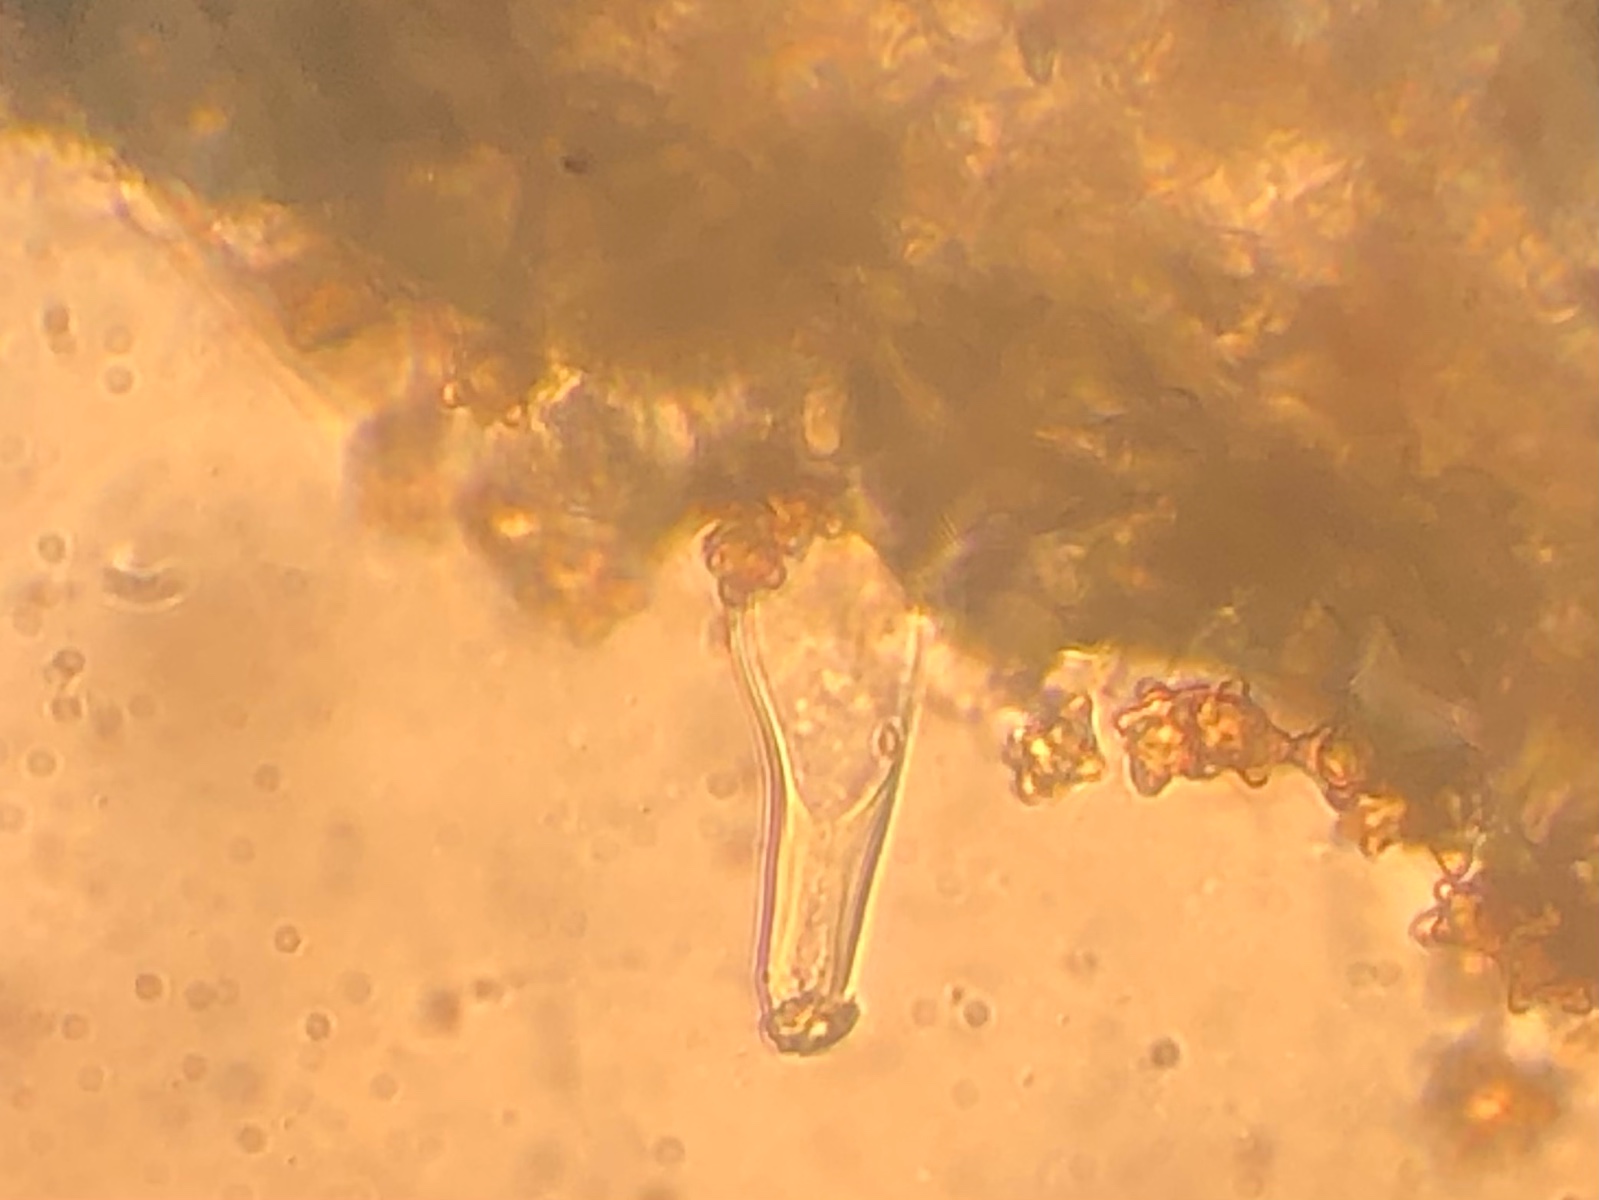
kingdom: Fungi
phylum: Basidiomycota
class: Agaricomycetes
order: Agaricales
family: Inocybaceae
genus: Pseudosperma
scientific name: Pseudosperma
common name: trævlhat
